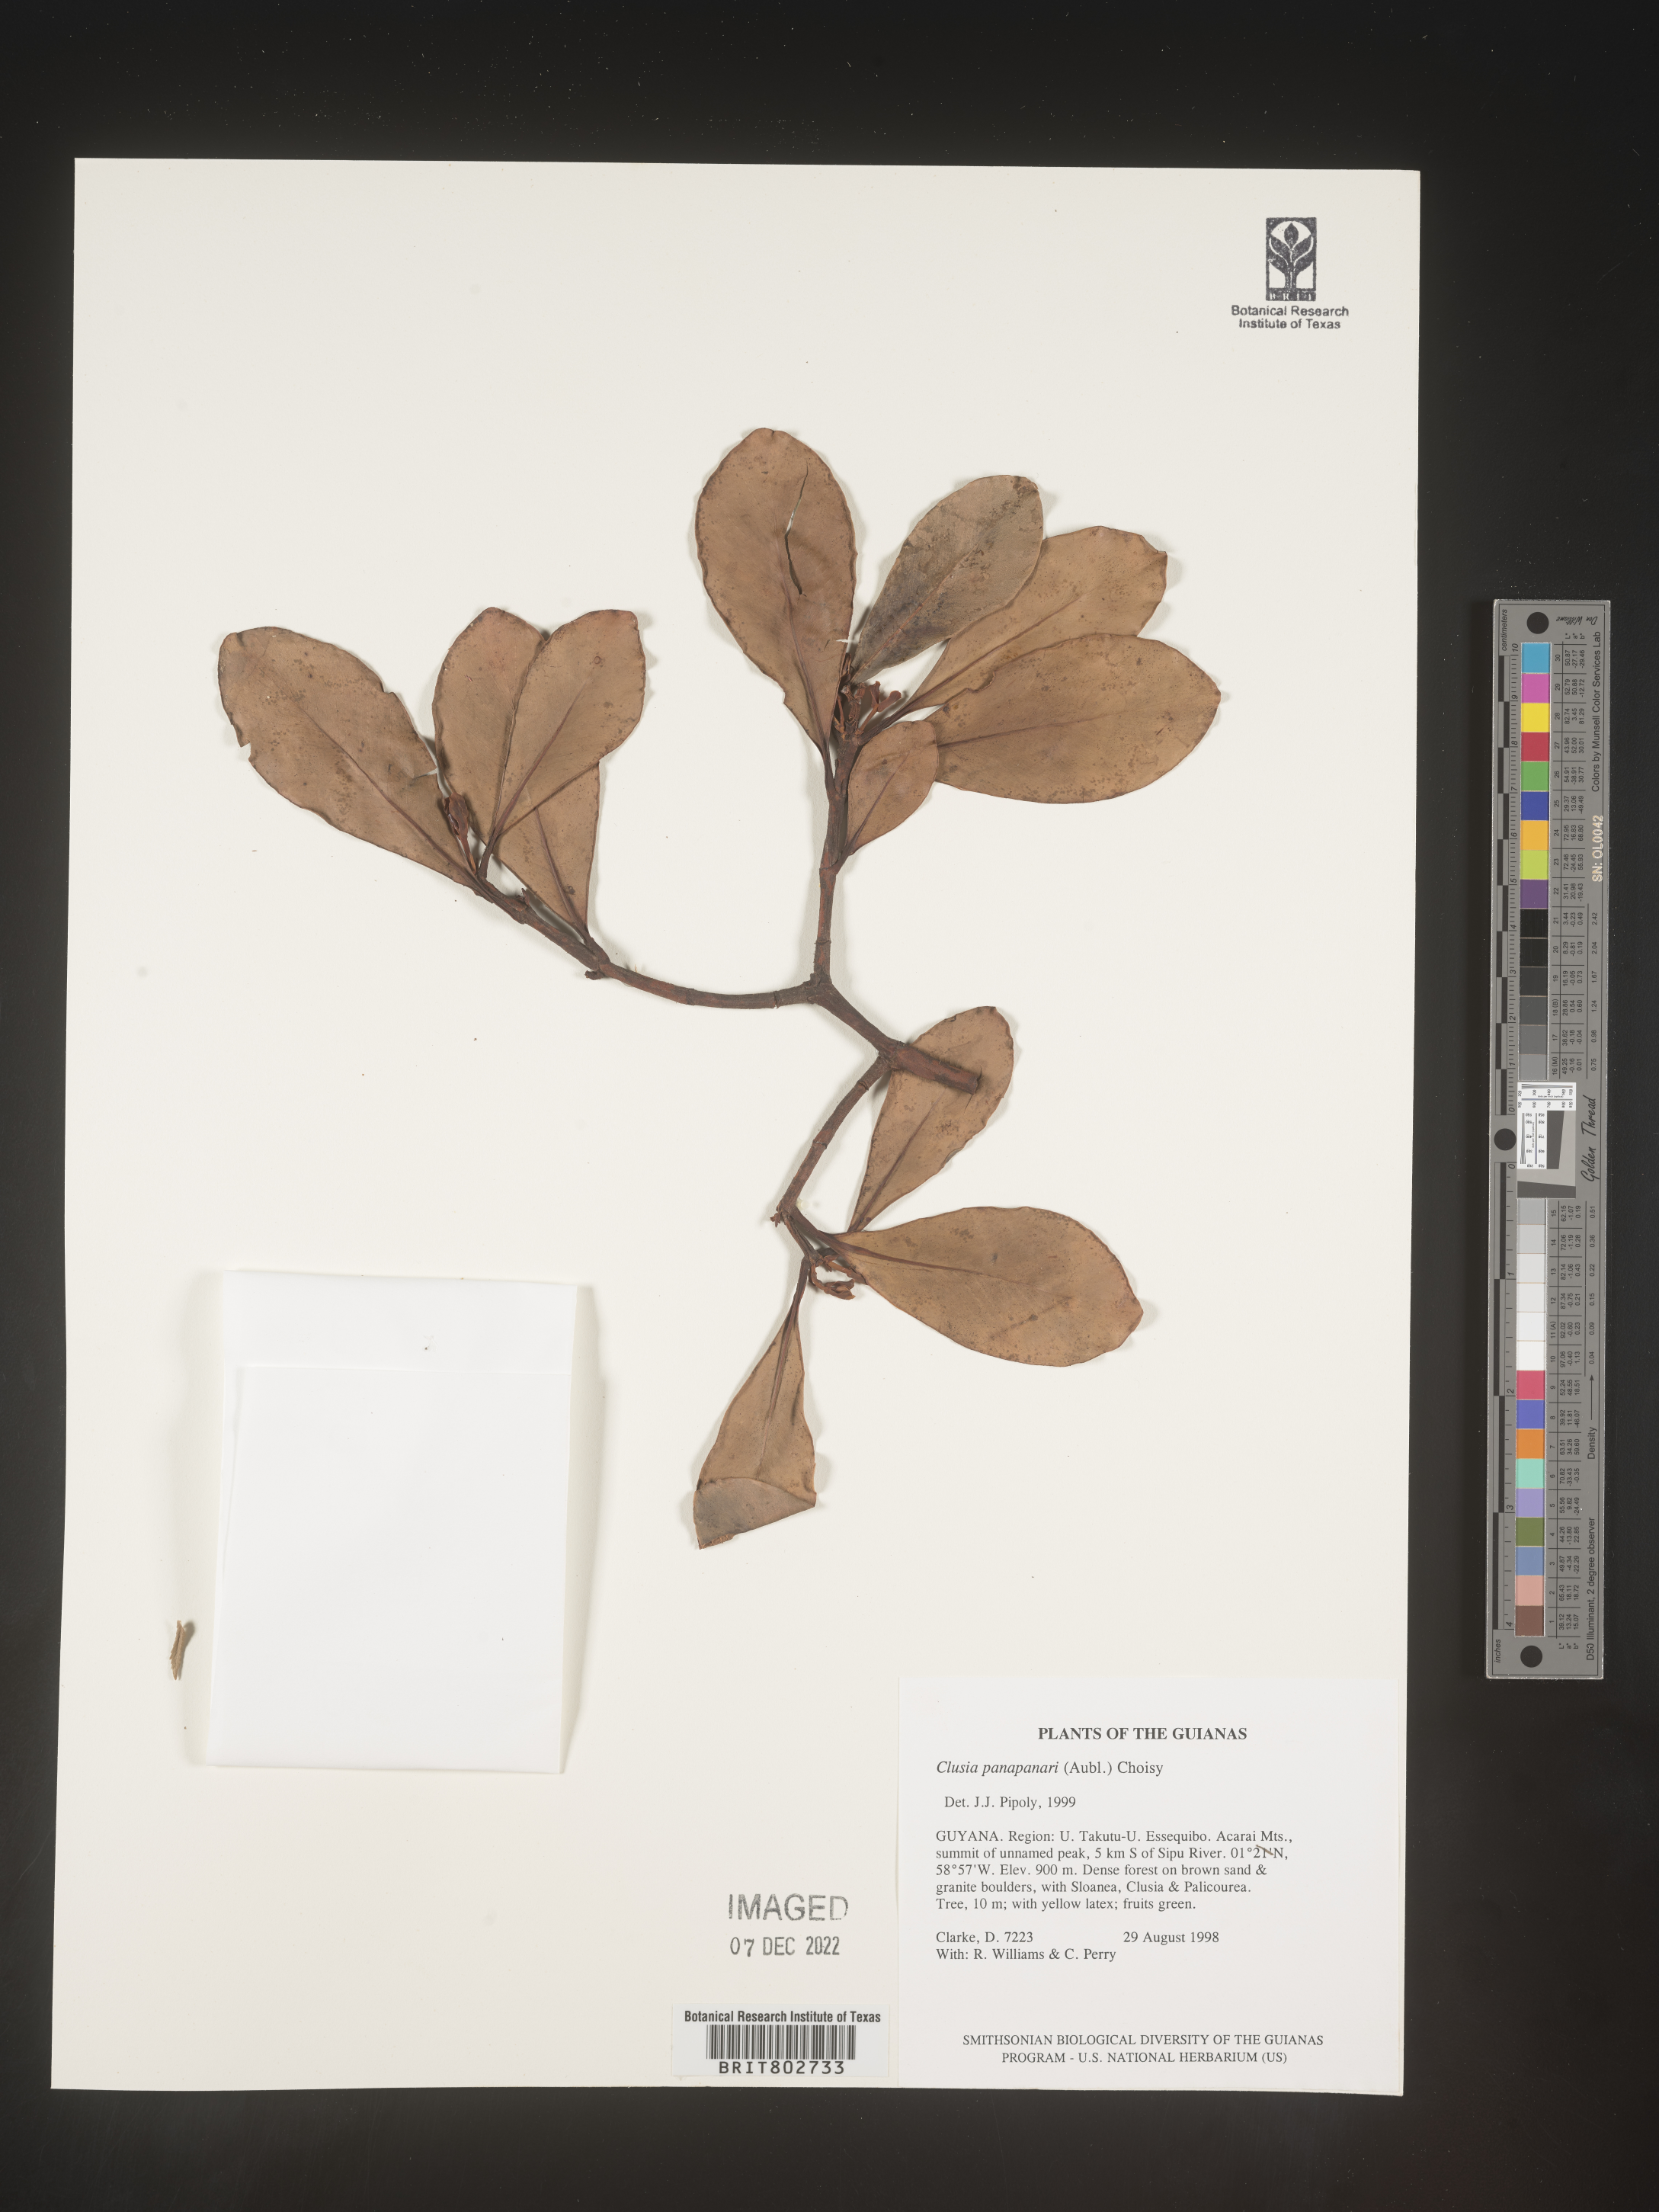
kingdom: Plantae
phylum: Tracheophyta
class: Magnoliopsida
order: Malpighiales
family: Clusiaceae
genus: Clusia
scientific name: Clusia panapanari
